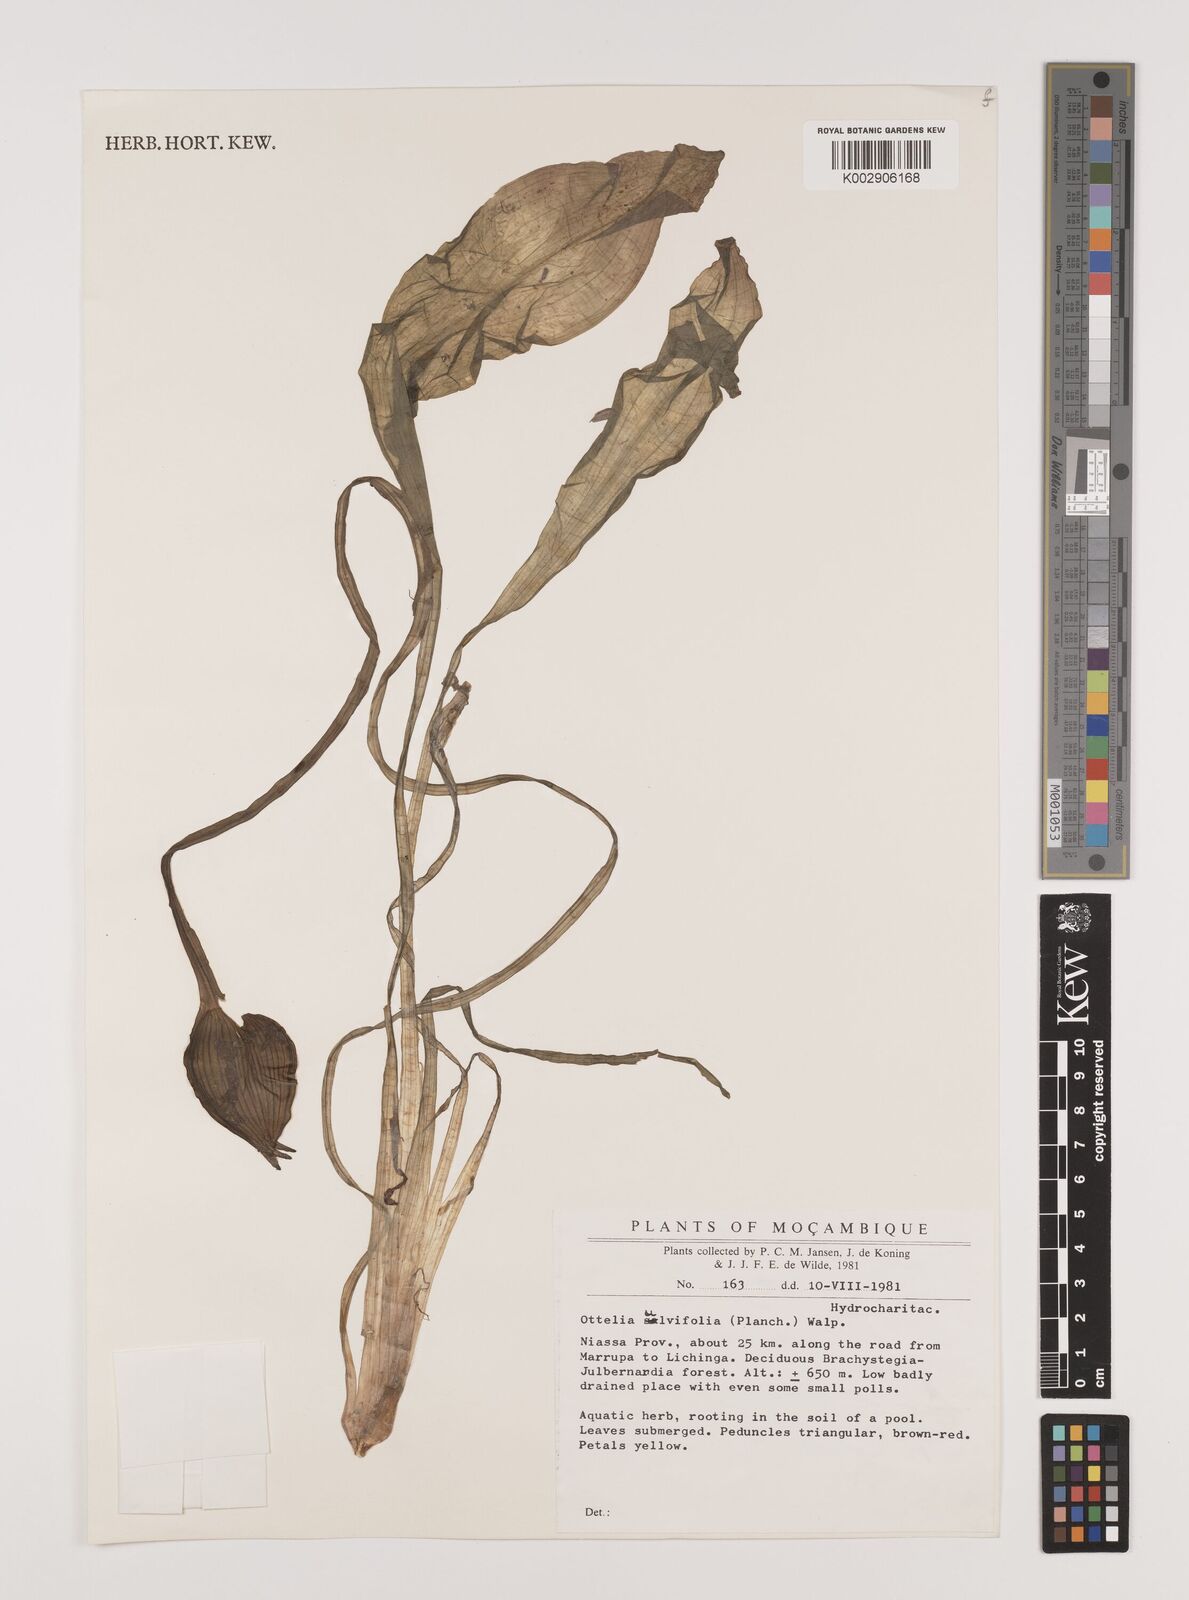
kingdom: Plantae
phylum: Tracheophyta
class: Liliopsida
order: Alismatales
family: Hydrocharitaceae
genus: Ottelia
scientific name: Ottelia ulvifolia
